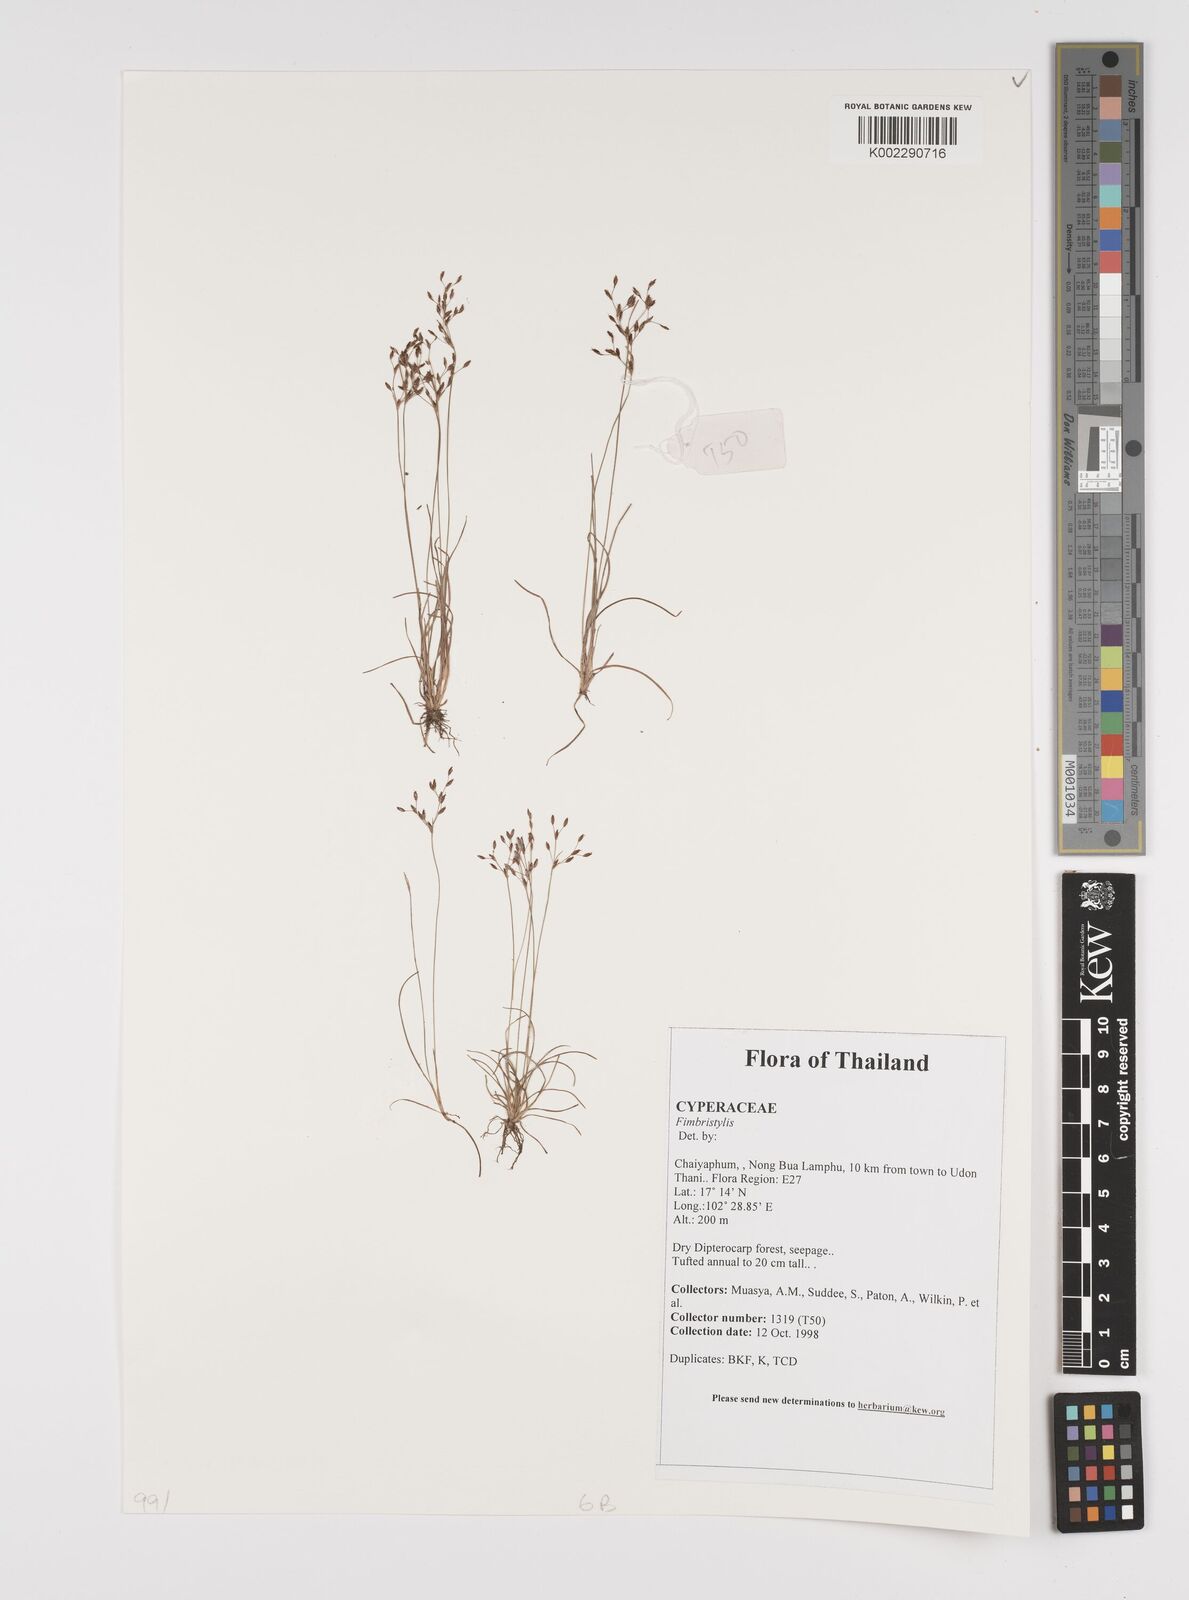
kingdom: Plantae
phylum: Tracheophyta
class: Liliopsida
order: Poales
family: Cyperaceae
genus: Fimbristylis
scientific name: Fimbristylis
